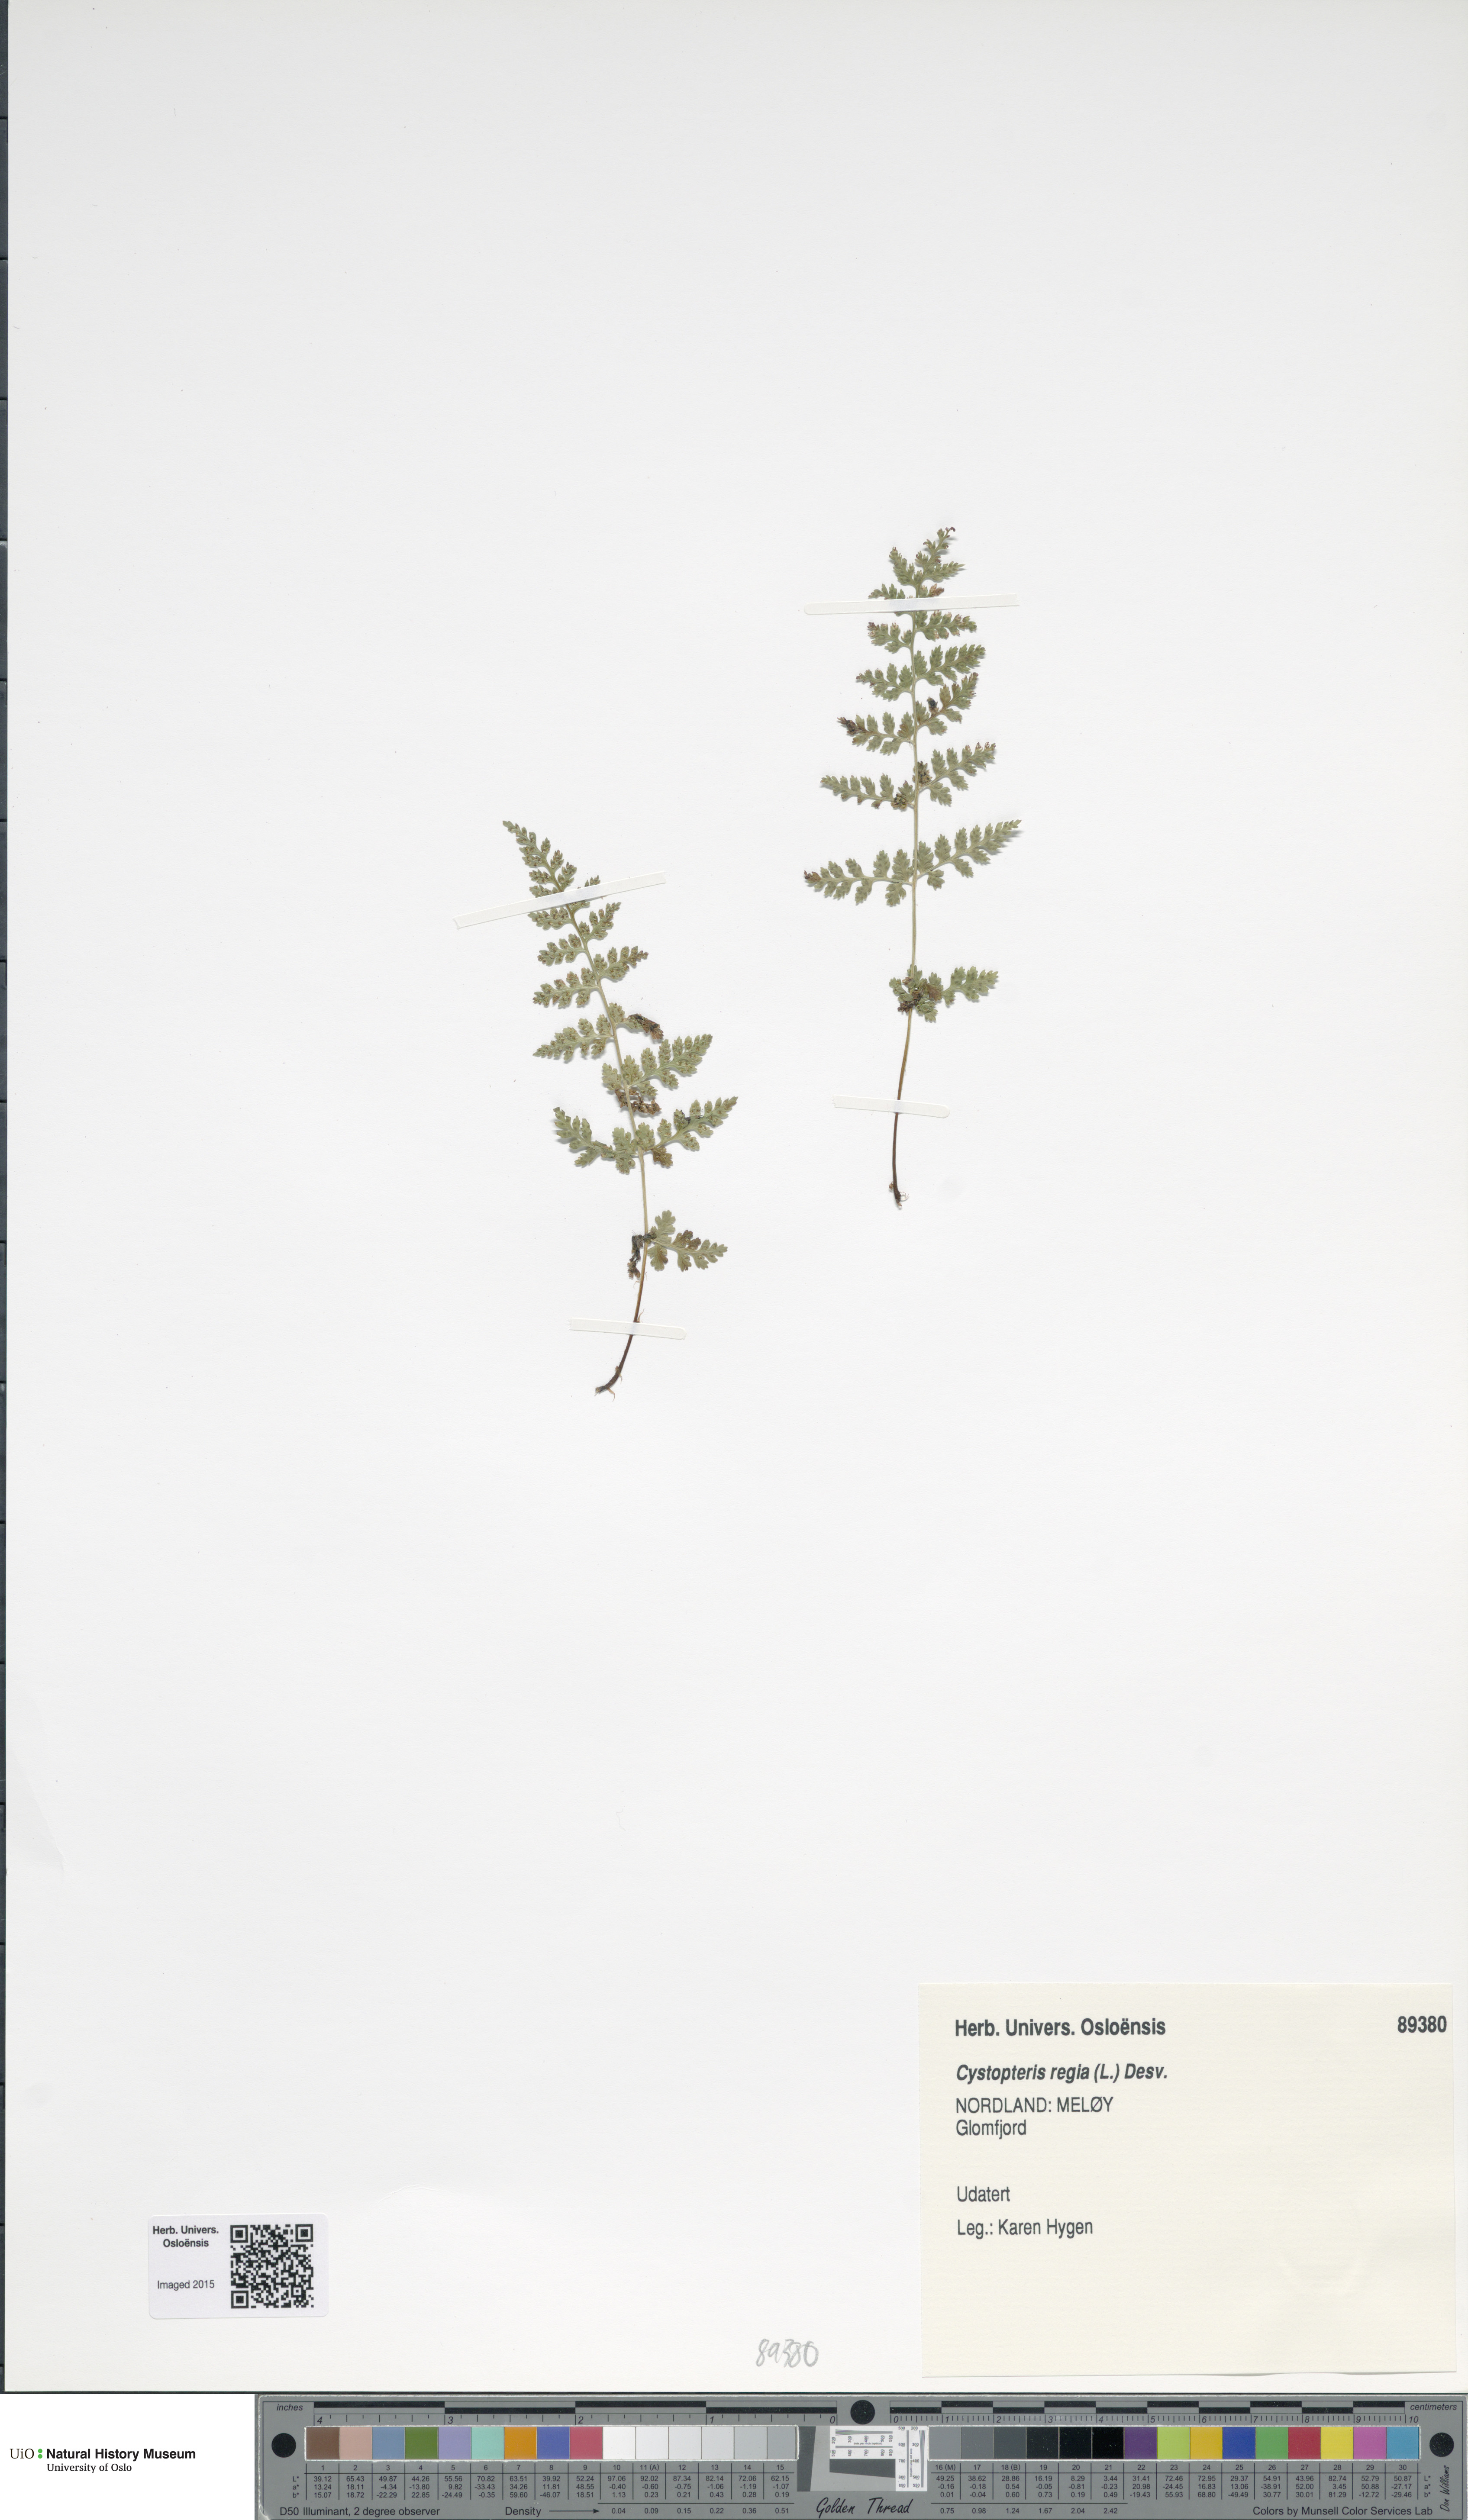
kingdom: Plantae
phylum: Tracheophyta
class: Polypodiopsida
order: Polypodiales
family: Cystopteridaceae
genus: Cystopteris
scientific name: Cystopteris alpina
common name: Alpine bladder-fern
